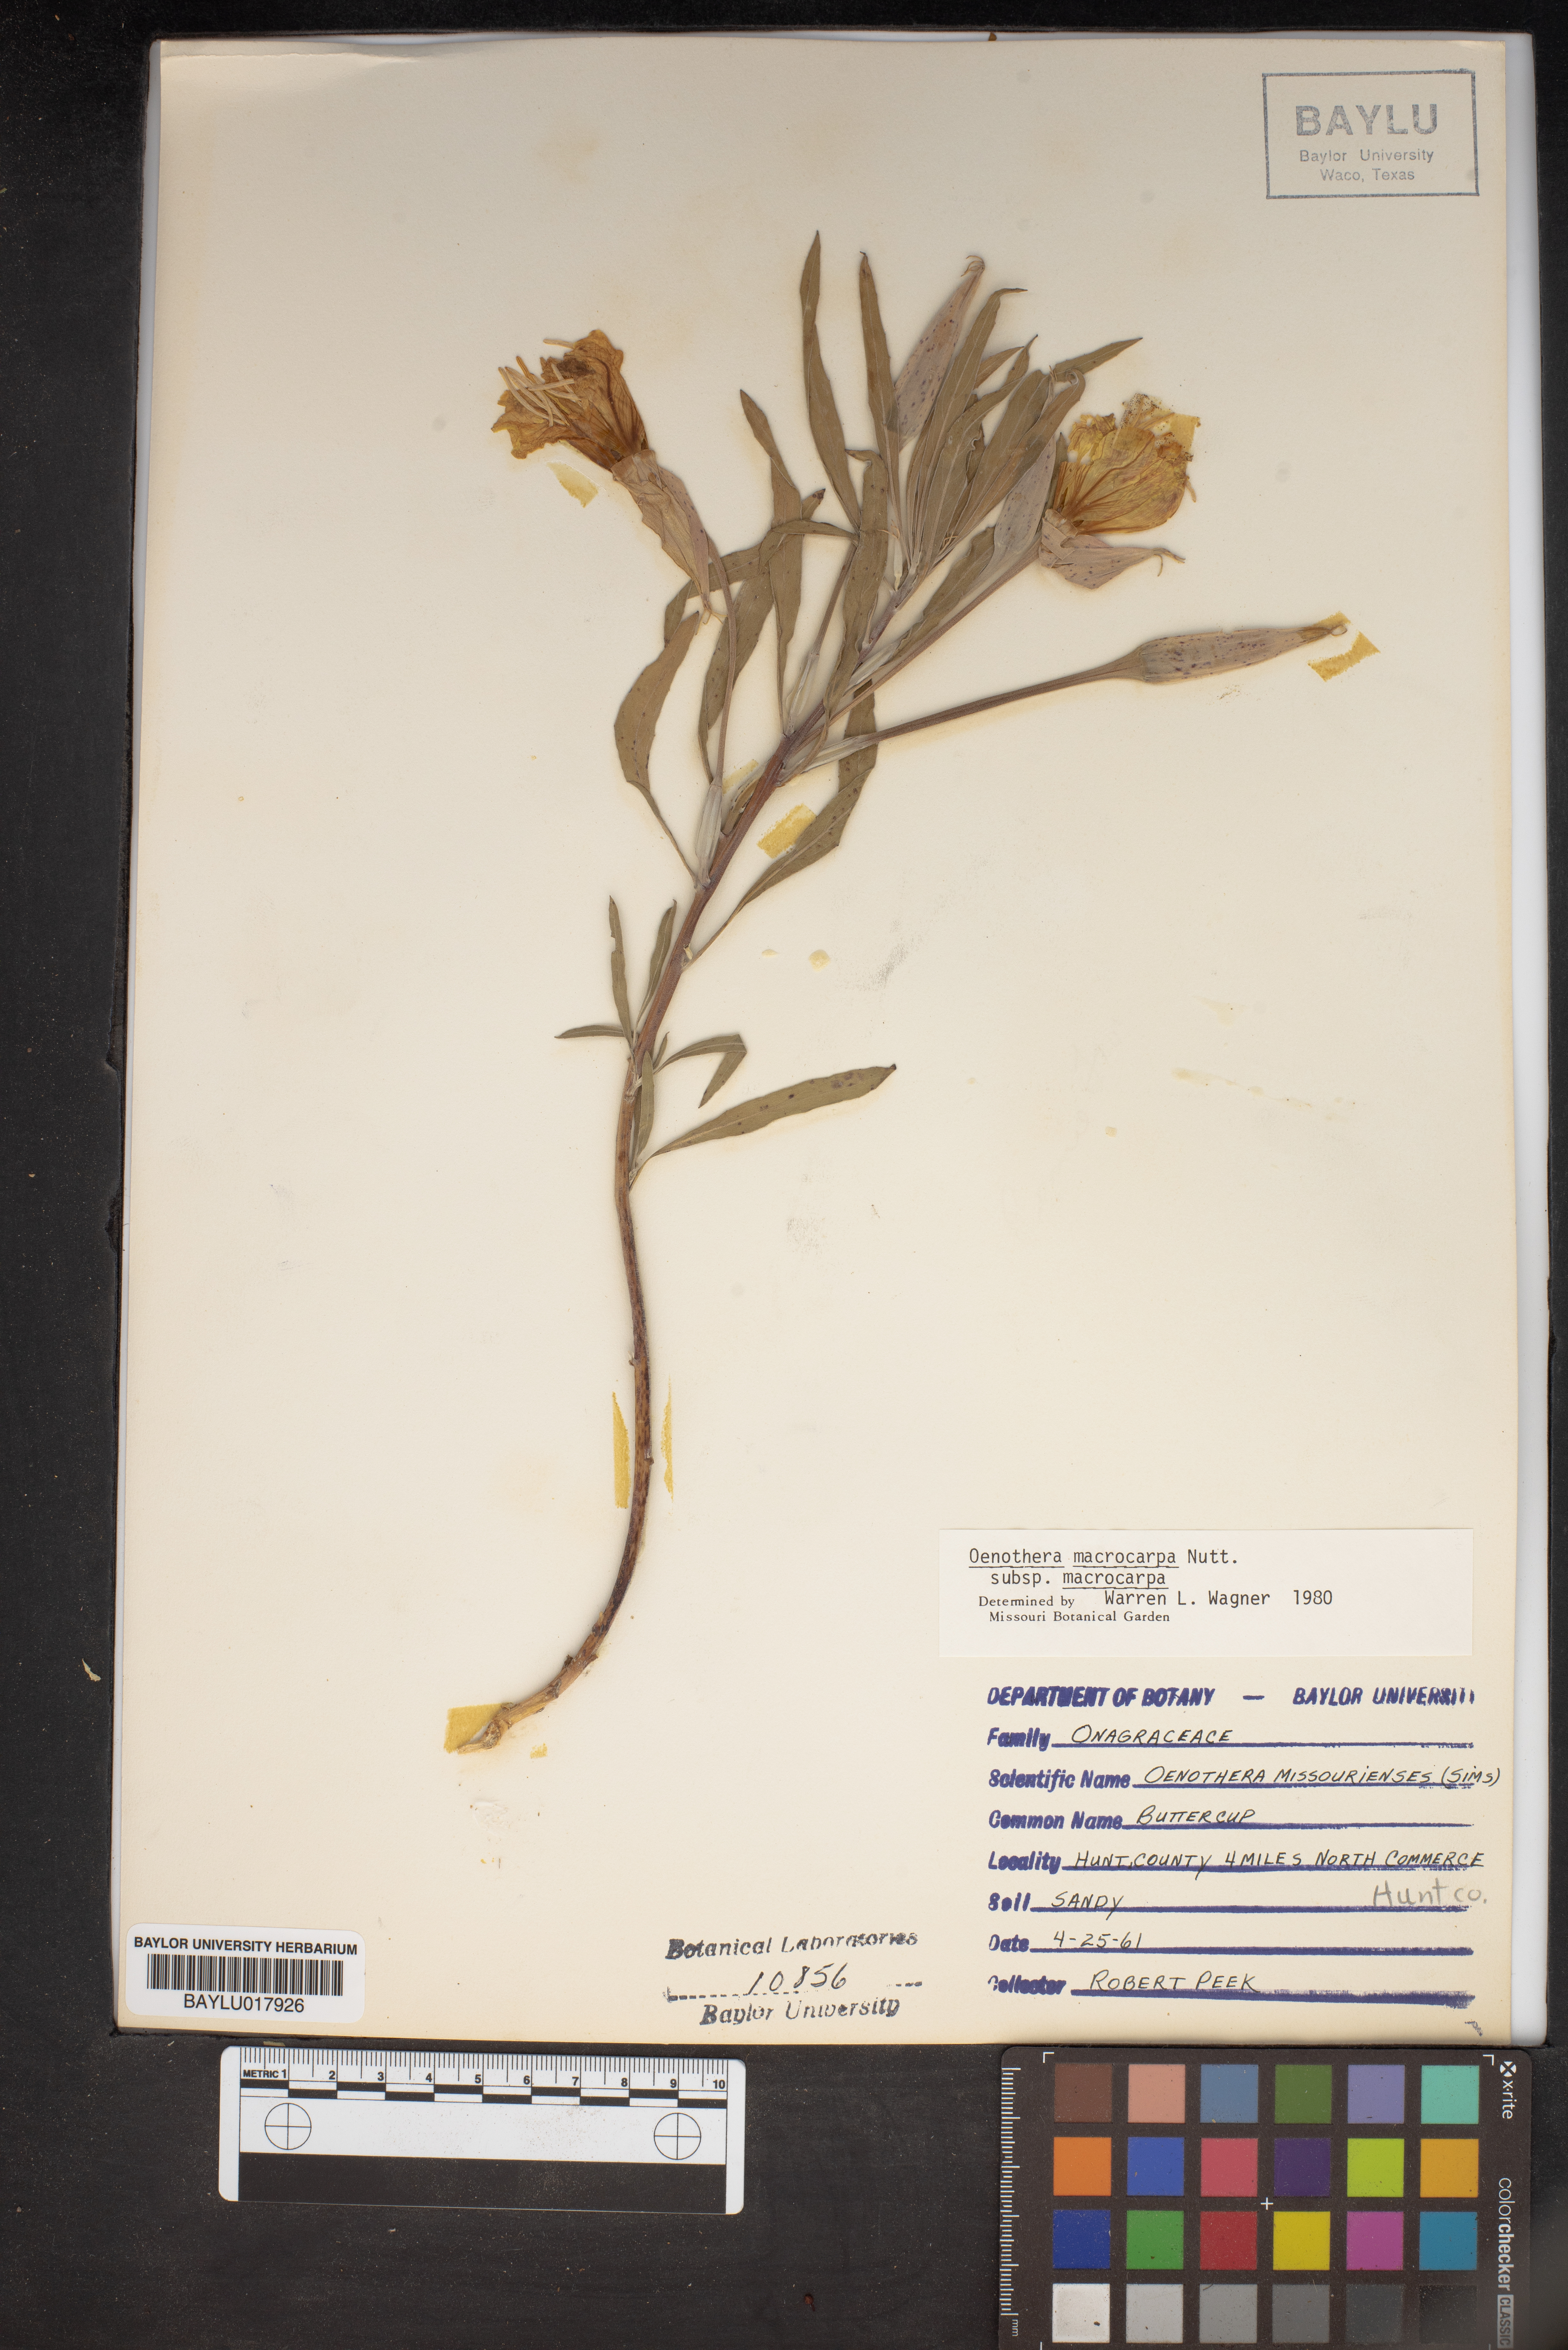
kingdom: Plantae
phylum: Tracheophyta
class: Magnoliopsida
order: Myrtales
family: Onagraceae
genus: Oenothera
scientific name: Oenothera macrocarpa
